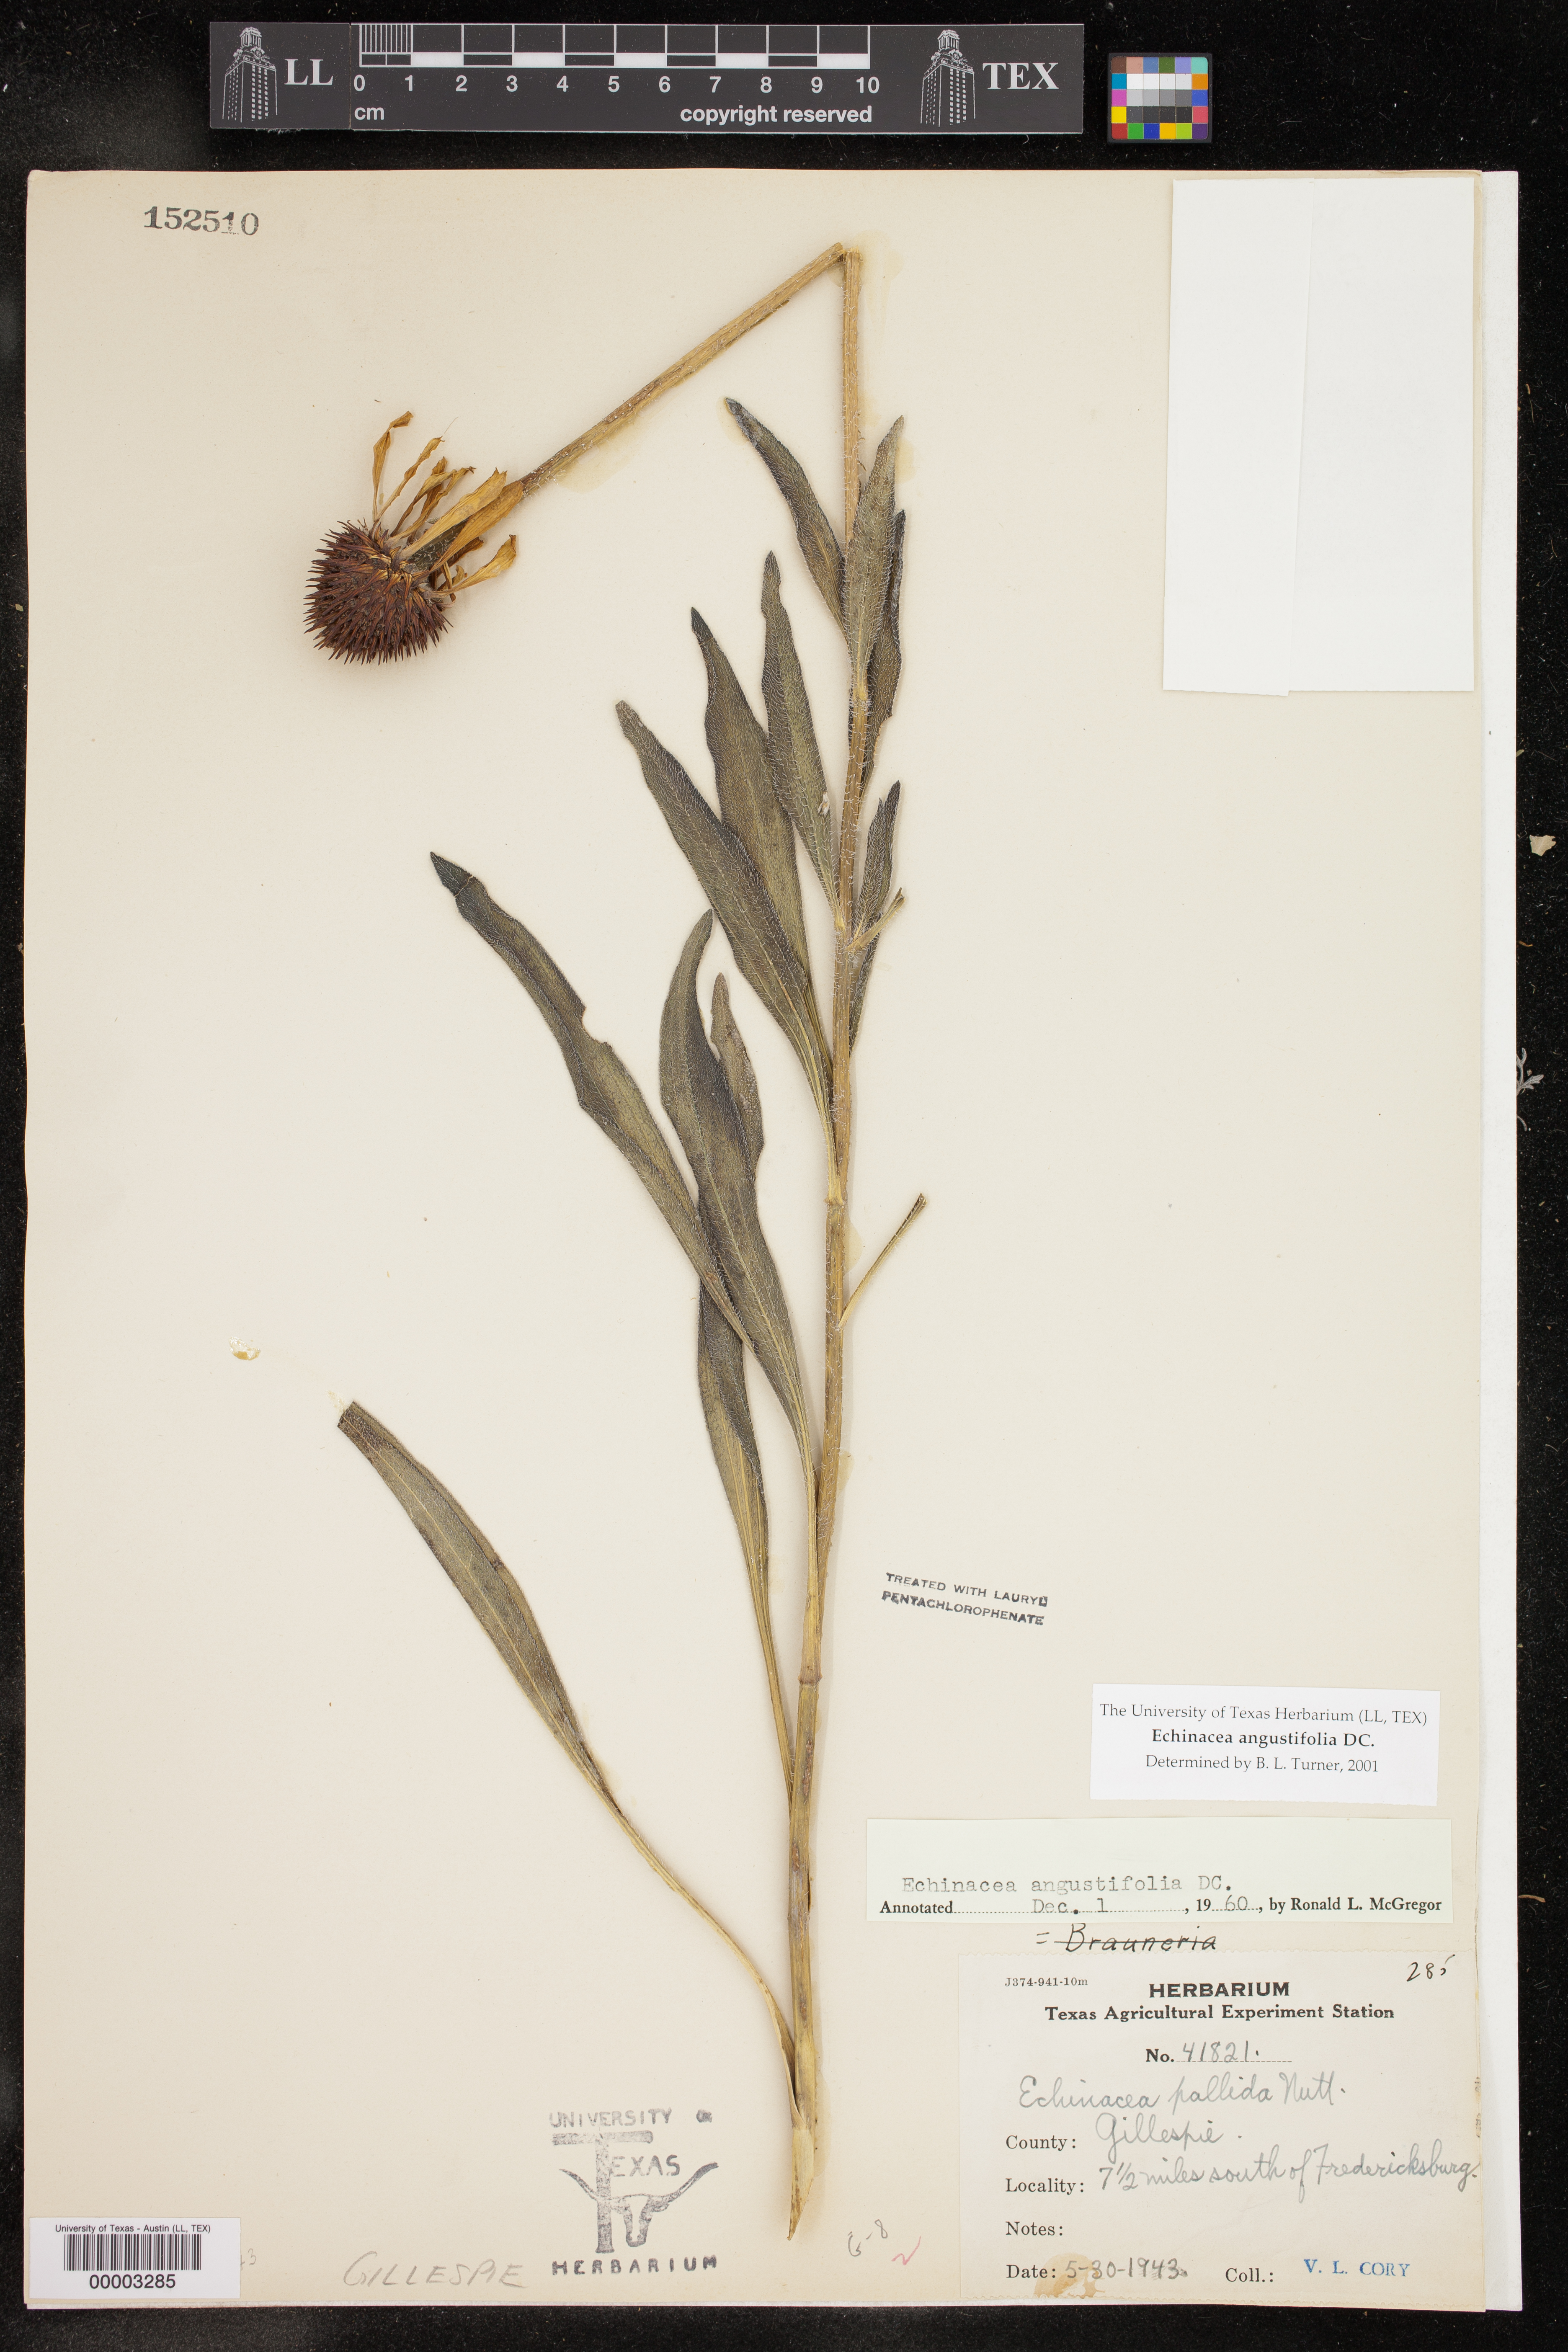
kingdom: Plantae
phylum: Tracheophyta
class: Magnoliopsida
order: Asterales
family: Asteraceae
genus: Echinacea
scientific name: Echinacea angustifolia
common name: Black-sampson echinacea
